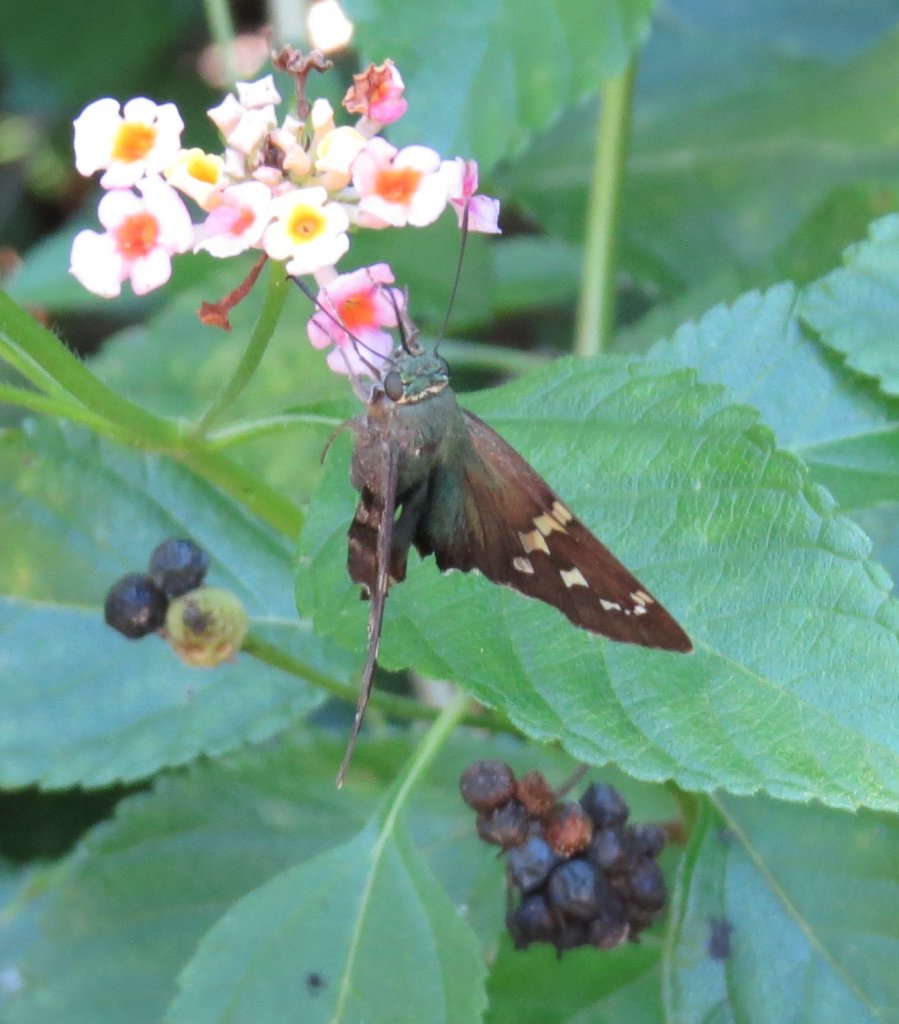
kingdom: Animalia
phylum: Arthropoda
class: Insecta
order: Lepidoptera
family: Hesperiidae
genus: Urbanus
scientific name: Urbanus proteus
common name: Long-tailed Skipper
